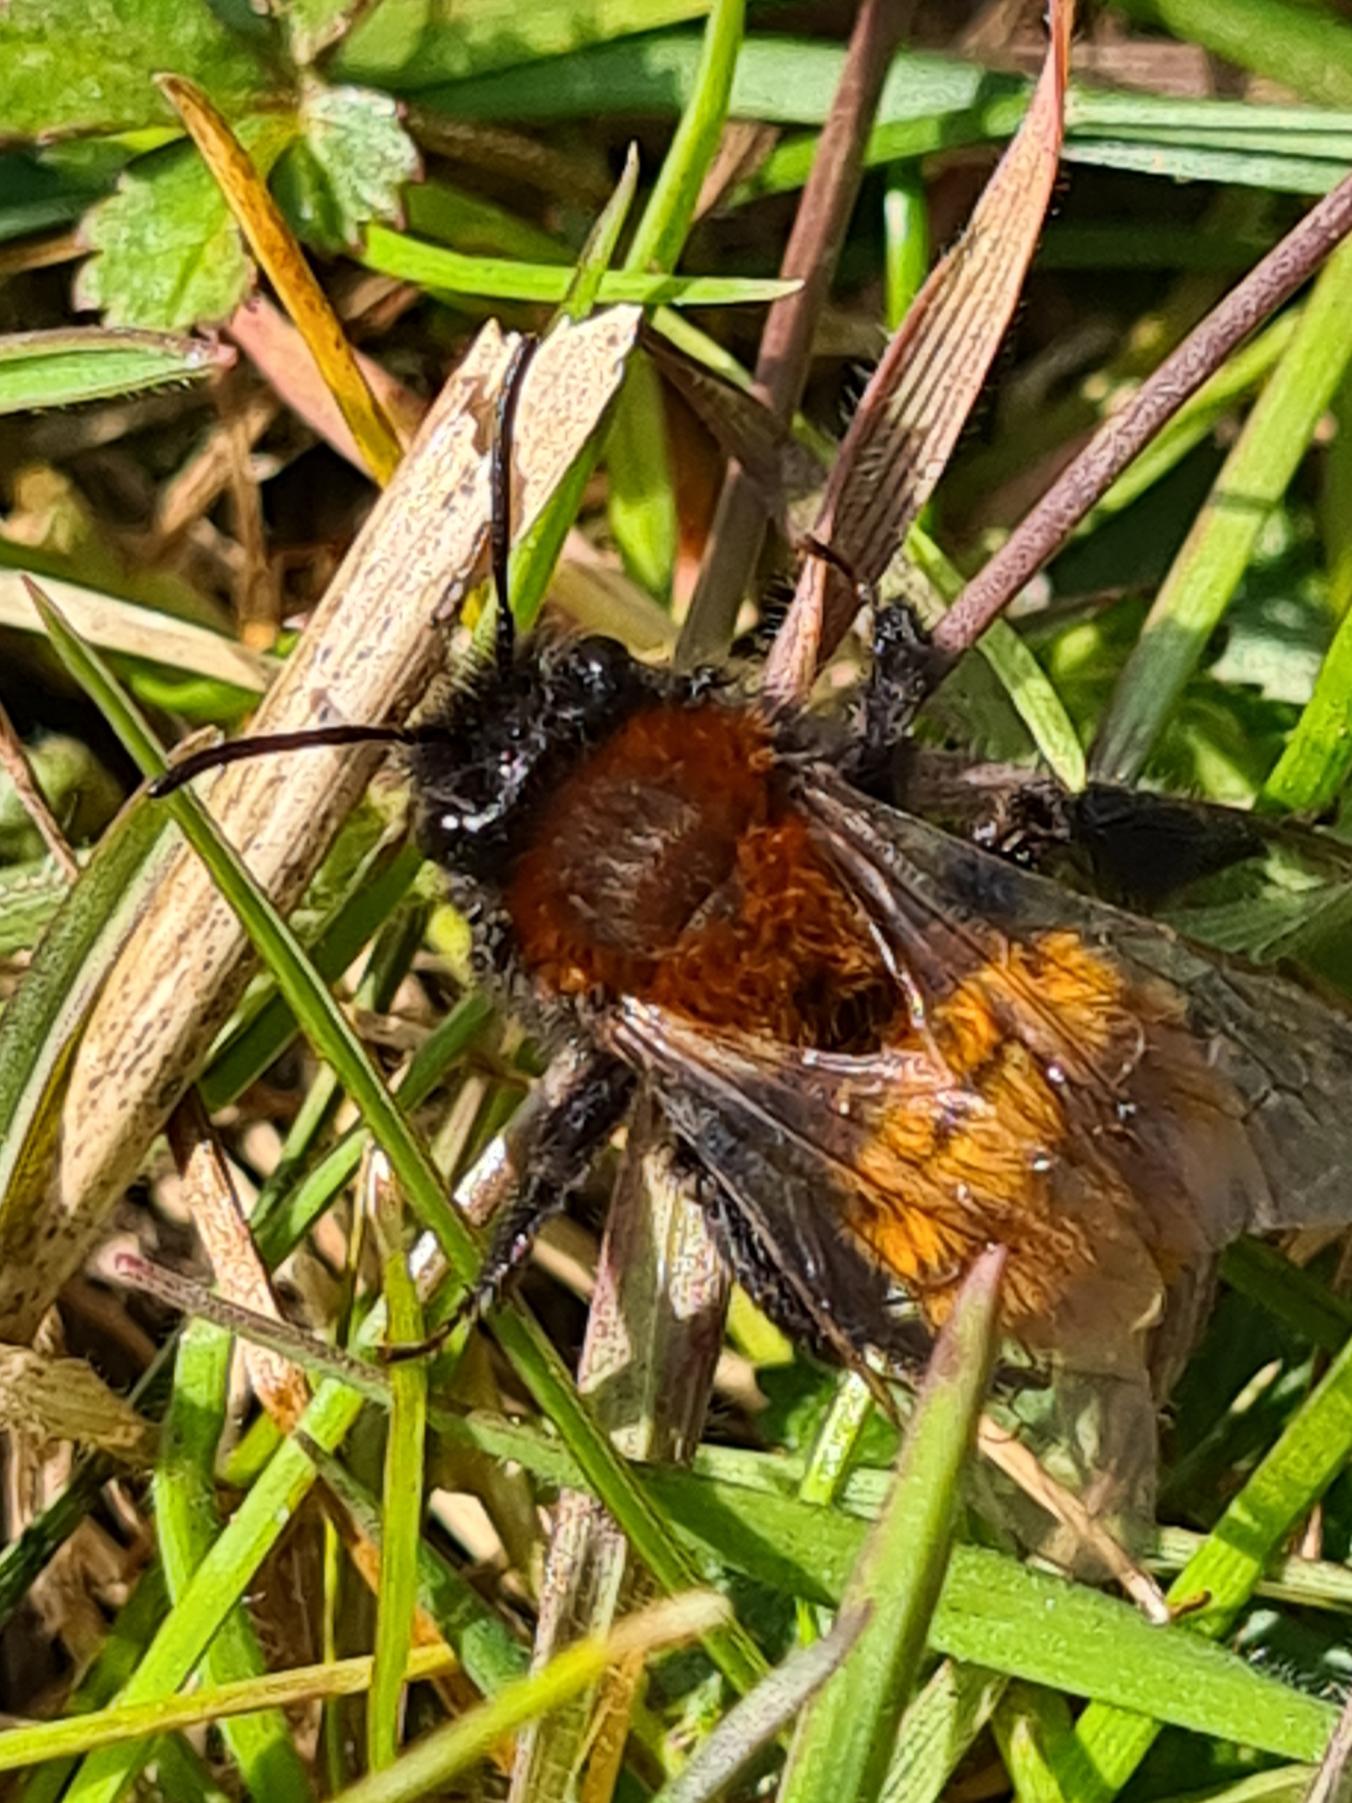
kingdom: Animalia
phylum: Arthropoda
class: Insecta
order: Hymenoptera
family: Andrenidae
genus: Andrena
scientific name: Andrena fulva
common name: Rødpelset jordbi
